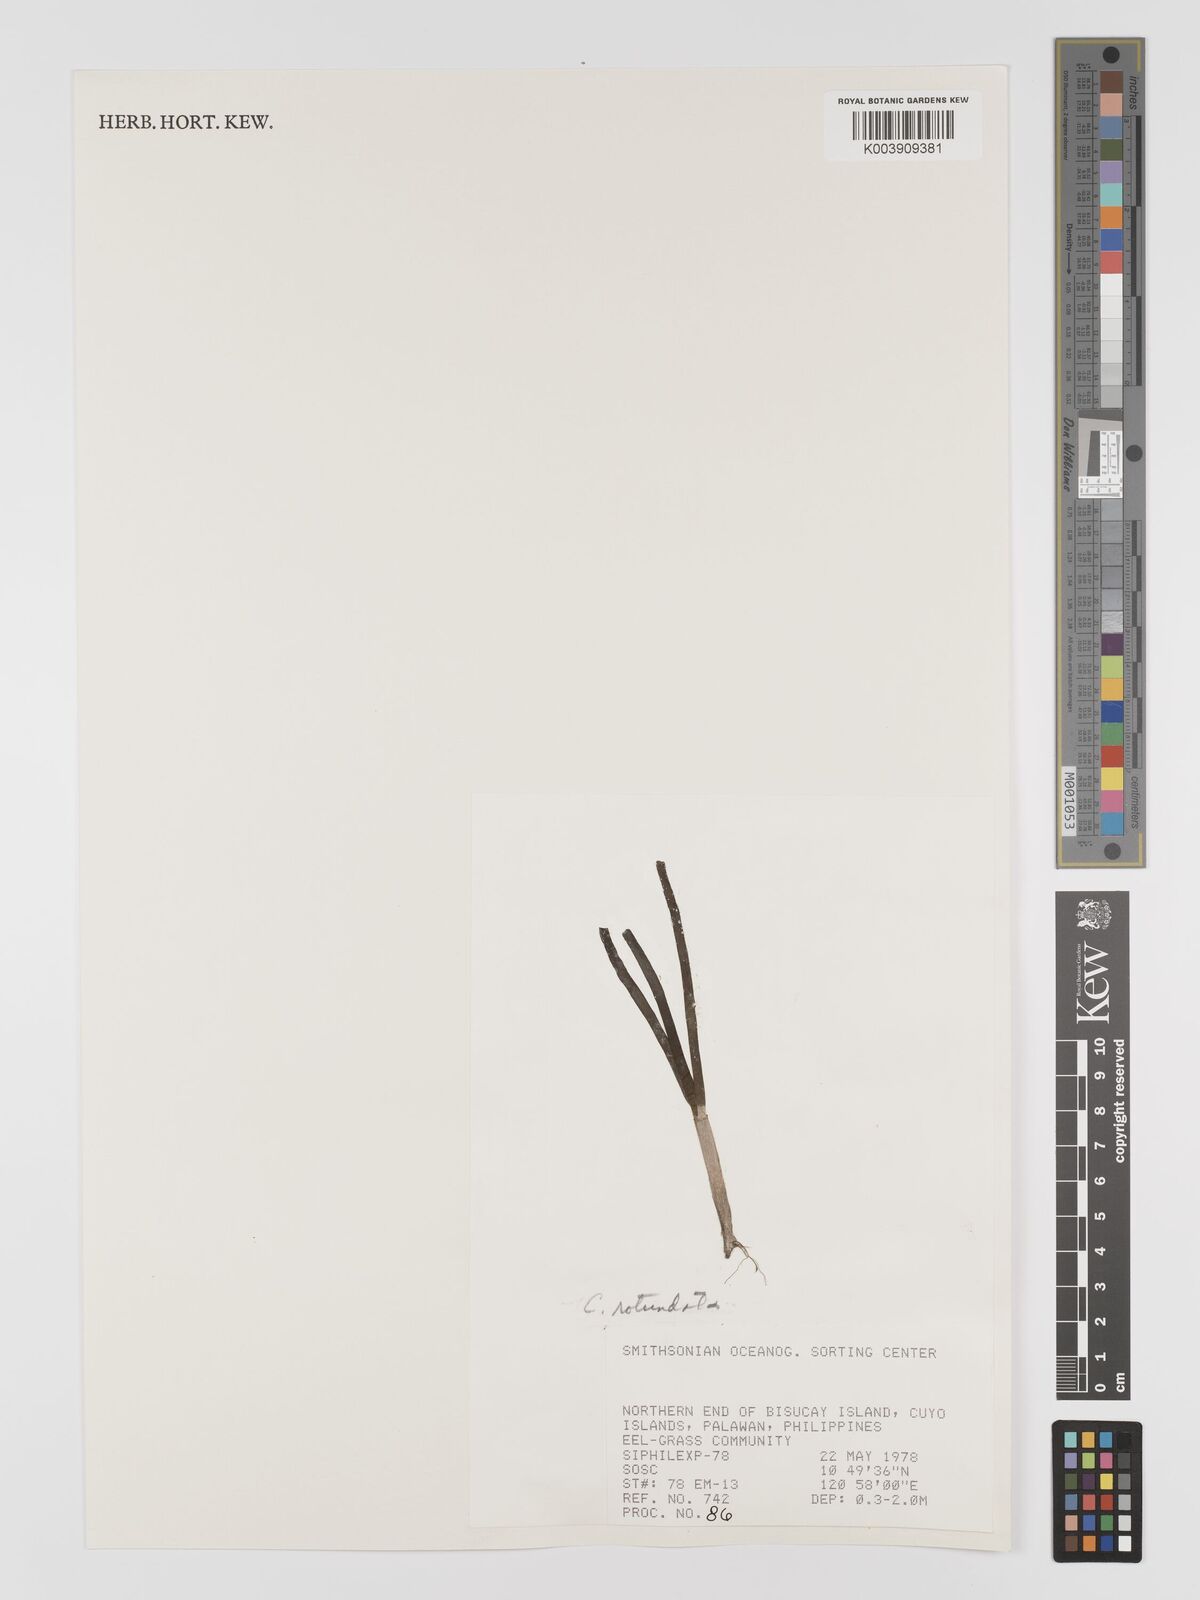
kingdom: Plantae
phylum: Tracheophyta
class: Liliopsida
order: Alismatales
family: Cymodoceaceae
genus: Cymodocea
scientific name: Cymodocea rotundata
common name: Species code: cr
